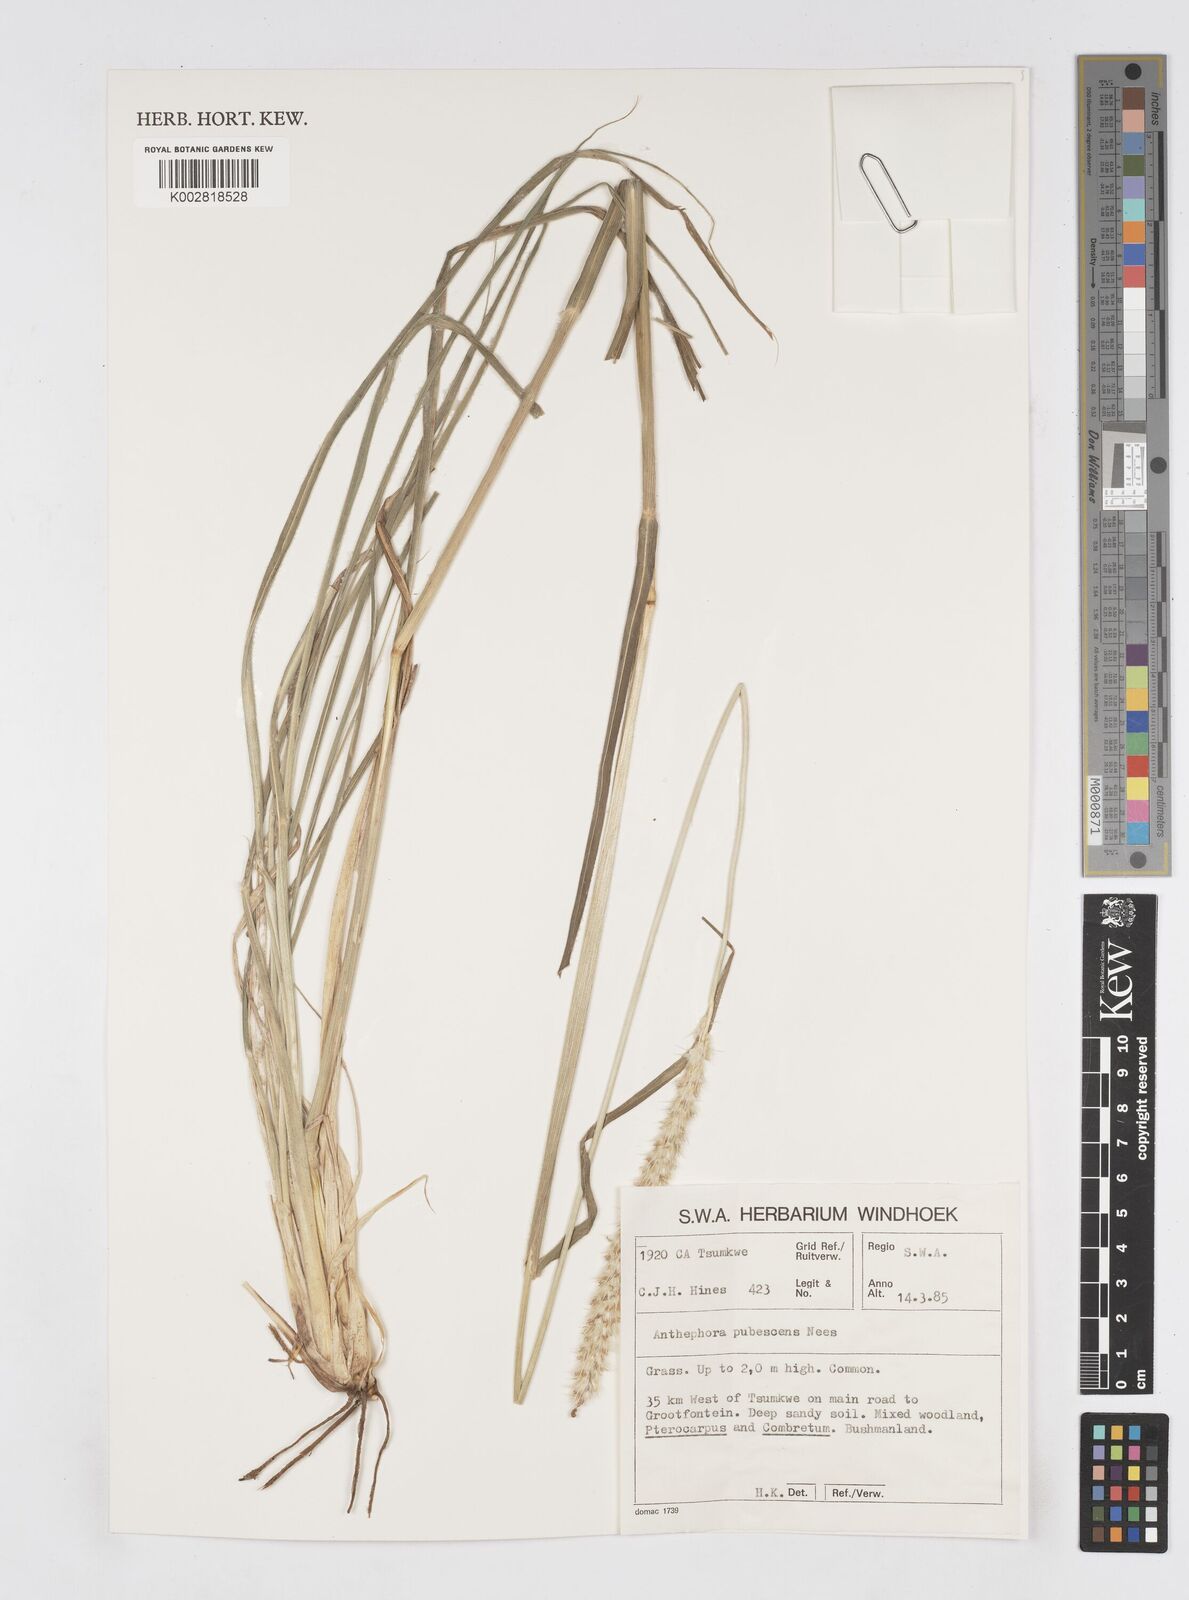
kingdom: Plantae
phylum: Tracheophyta
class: Liliopsida
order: Poales
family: Poaceae
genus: Anthephora
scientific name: Anthephora pubescens
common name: Wool grass
